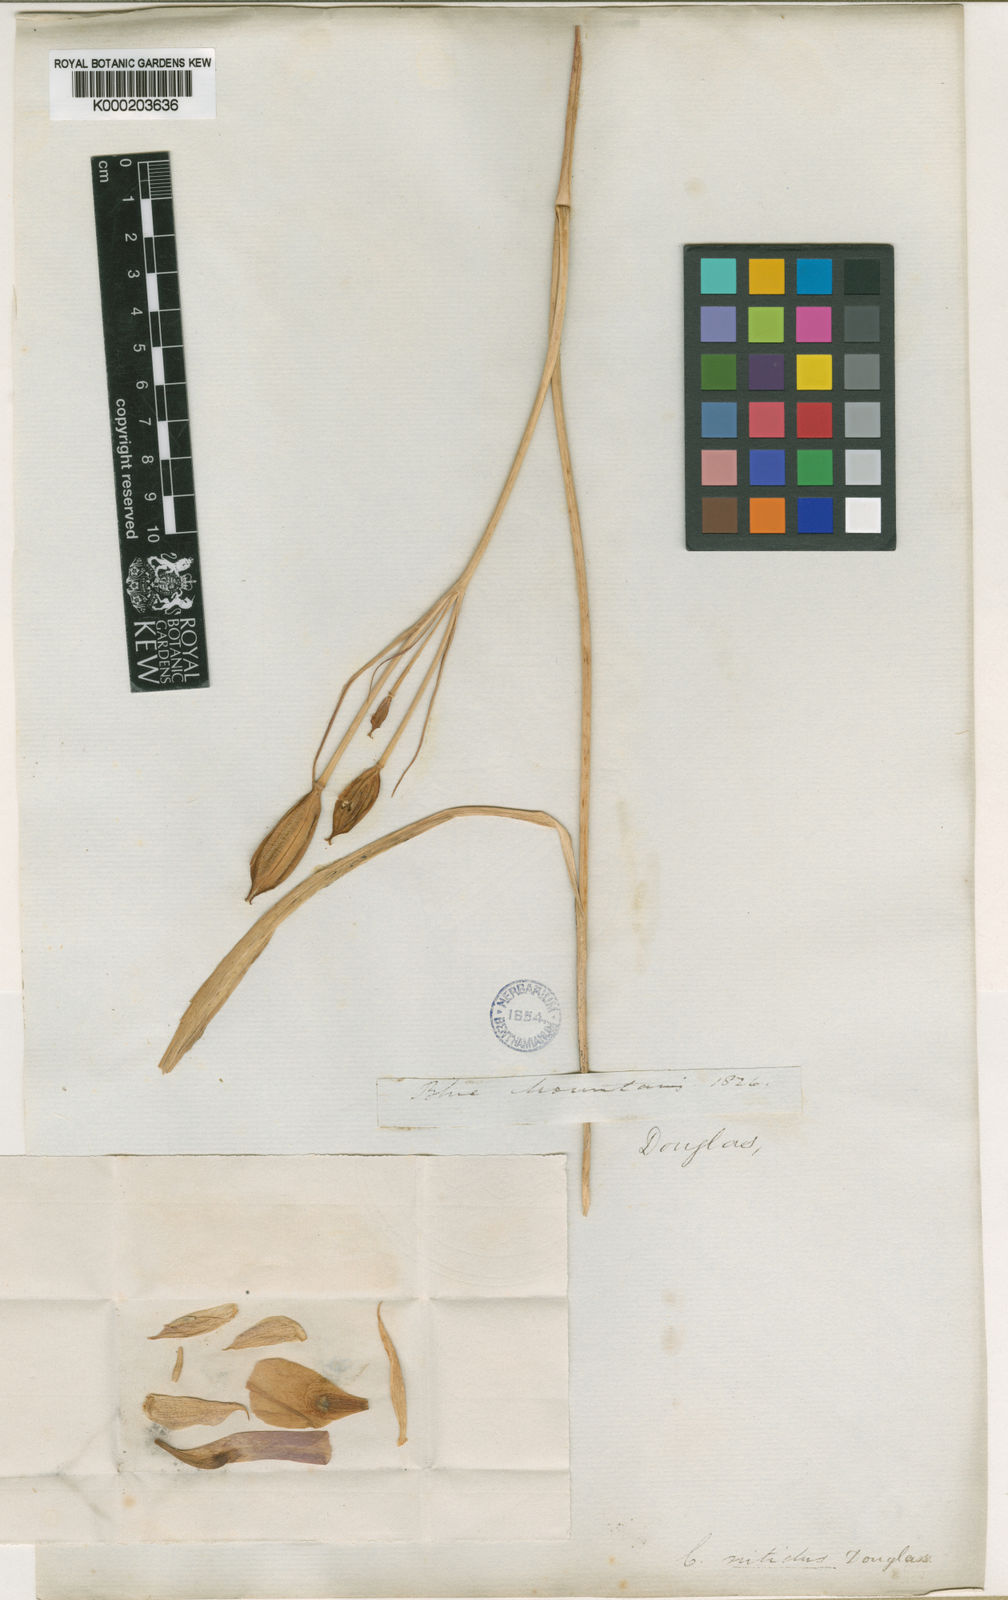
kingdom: Plantae
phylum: Tracheophyta
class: Liliopsida
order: Liliales
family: Liliaceae
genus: Calochortus
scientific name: Calochortus nitidus
